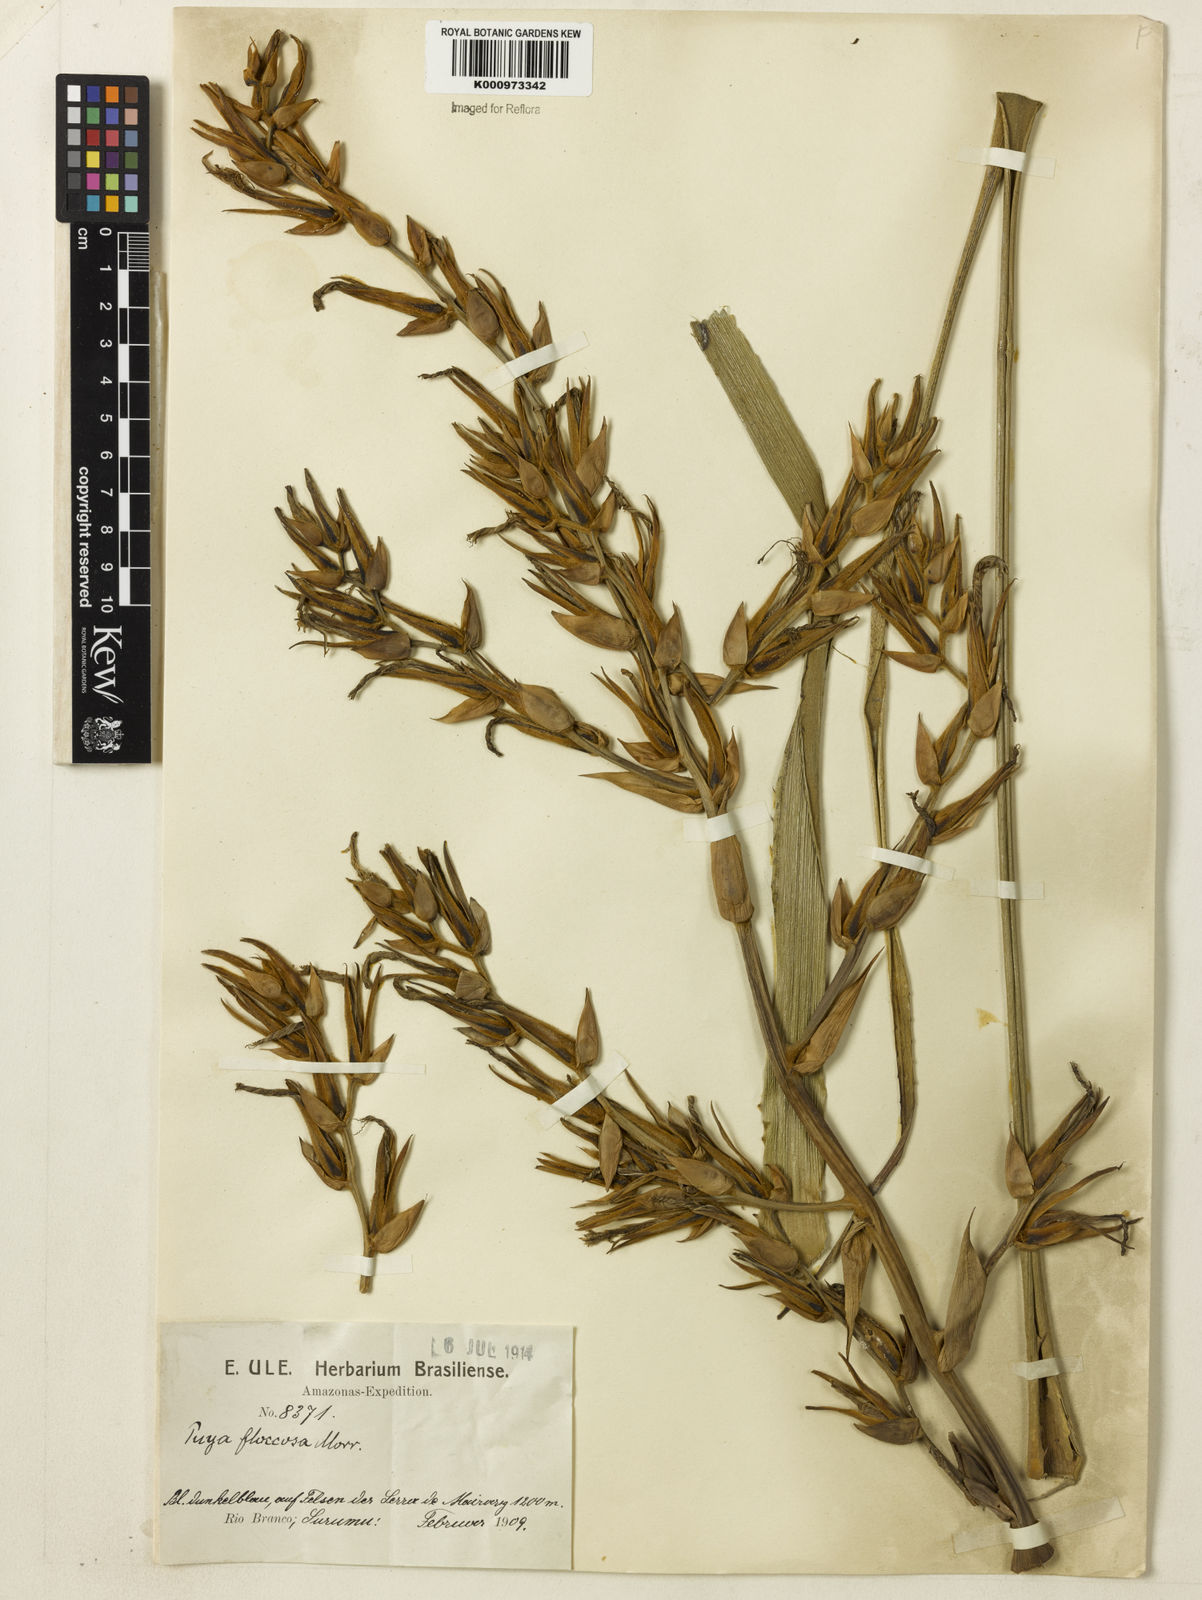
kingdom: Plantae
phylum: Tracheophyta
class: Liliopsida
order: Poales
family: Bromeliaceae
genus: Puya
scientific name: Puya
